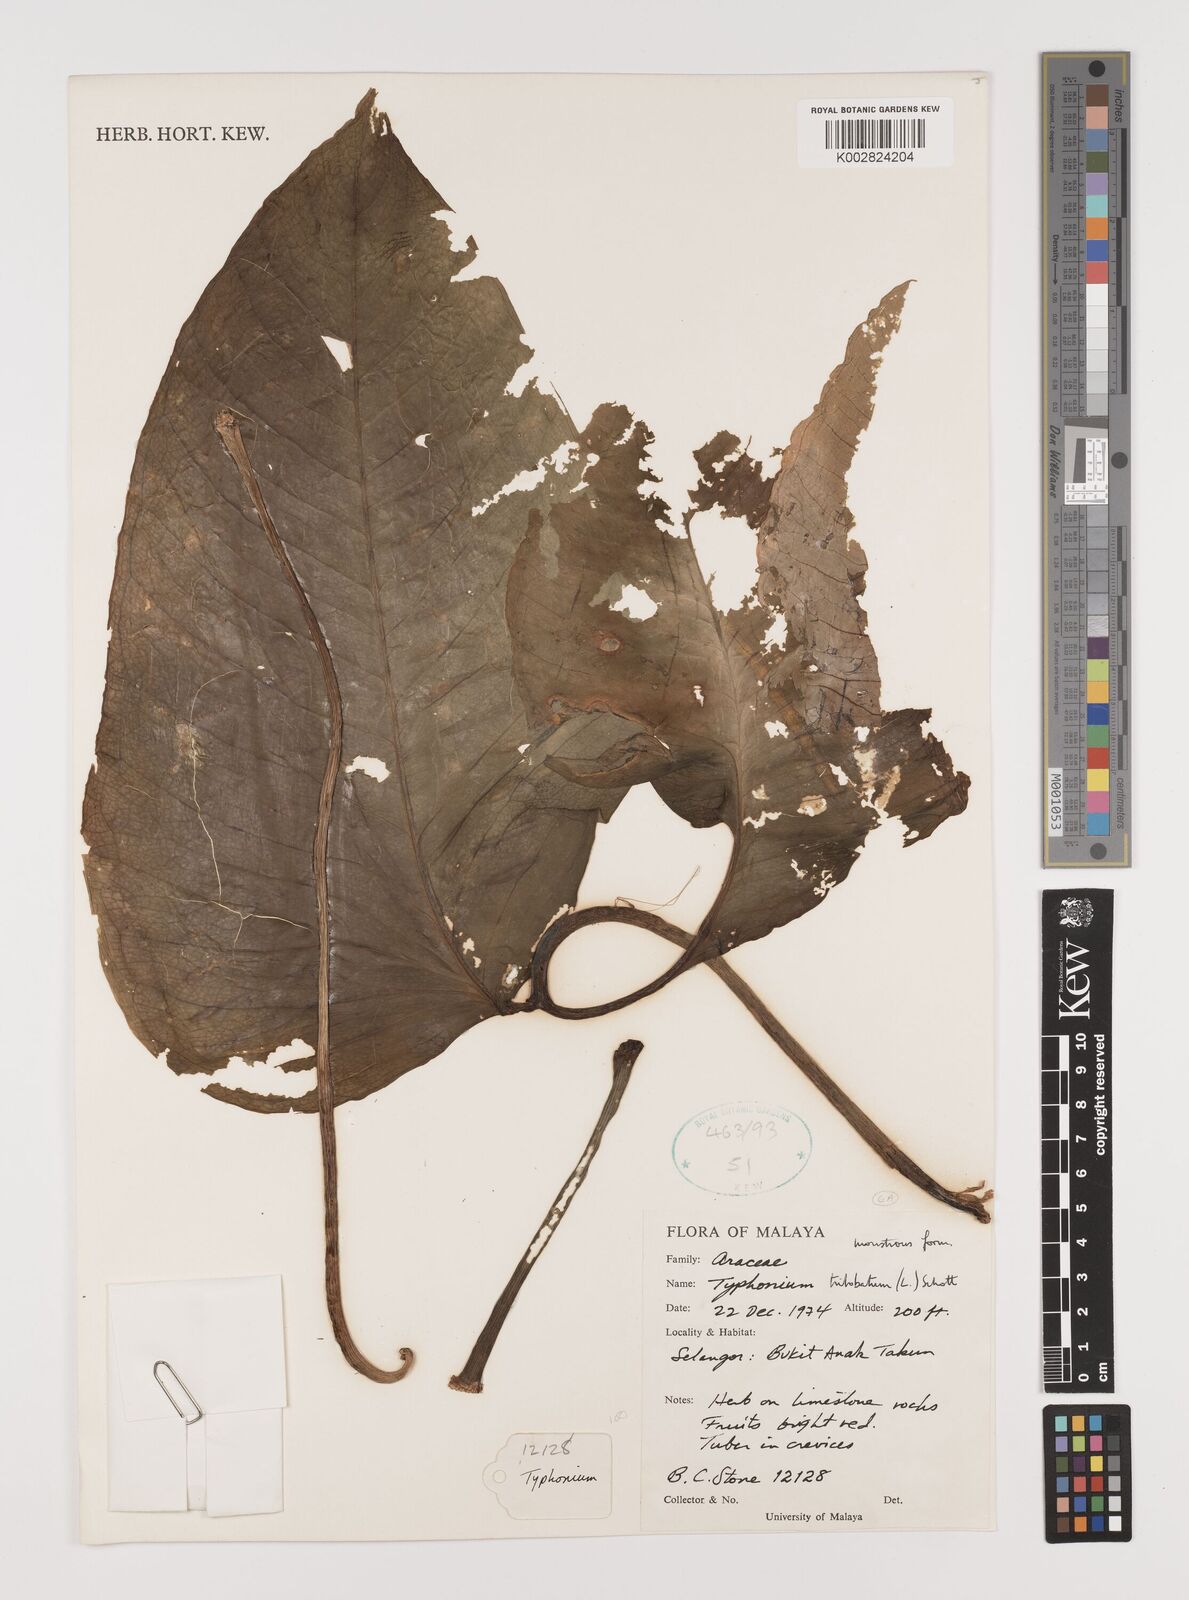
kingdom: Plantae
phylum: Tracheophyta
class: Liliopsida
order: Alismatales
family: Araceae
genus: Typhonium
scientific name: Typhonium trilobatum
